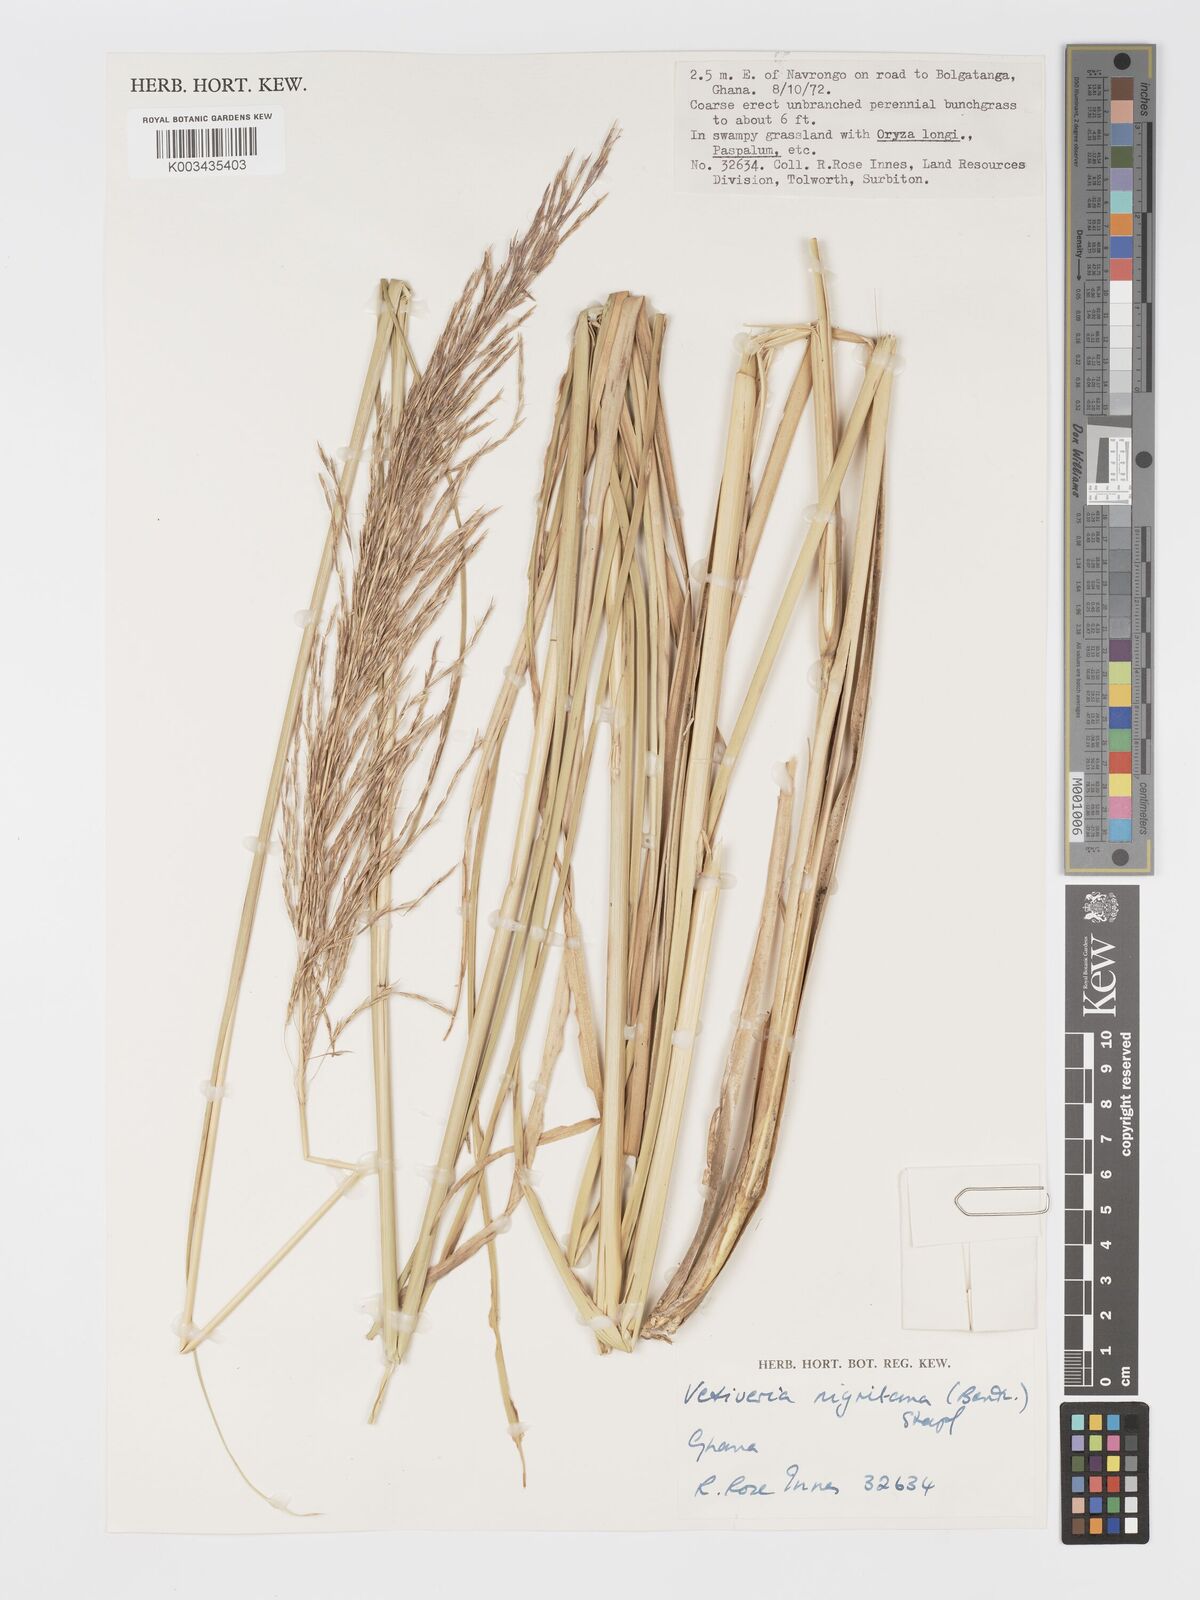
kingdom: Plantae
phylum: Tracheophyta
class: Liliopsida
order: Poales
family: Poaceae
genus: Chrysopogon
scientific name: Chrysopogon nigritanus
